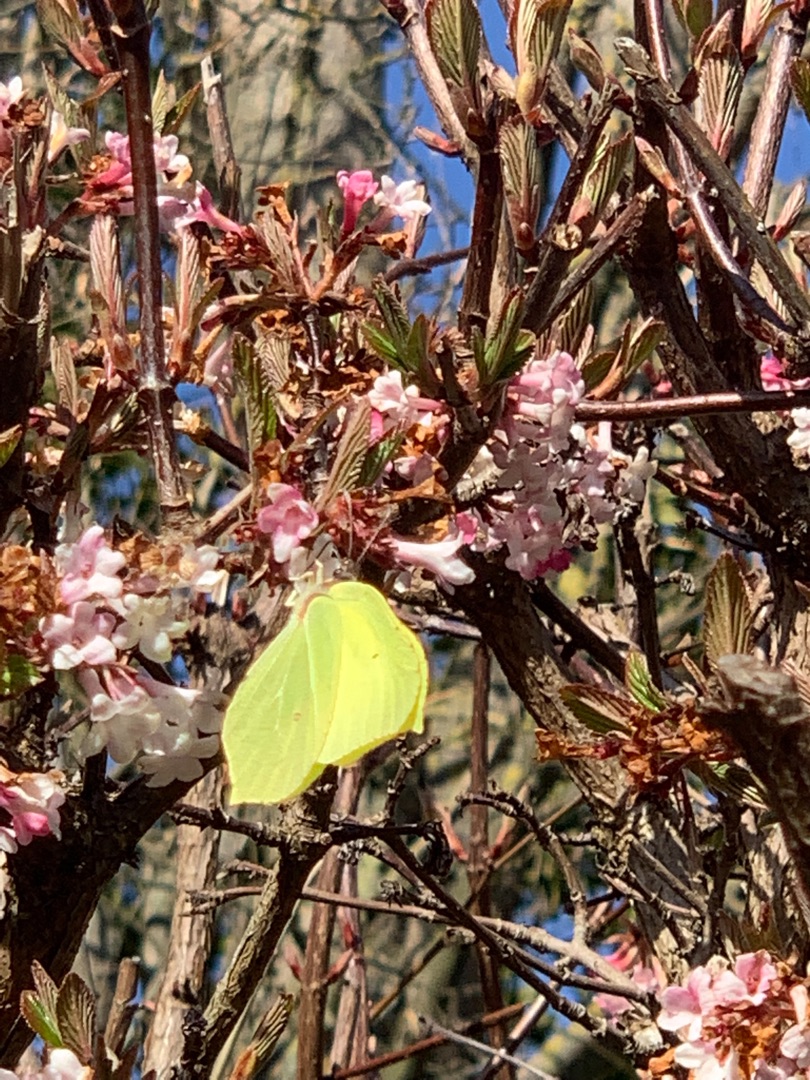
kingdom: Animalia
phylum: Arthropoda
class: Insecta
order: Lepidoptera
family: Pieridae
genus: Gonepteryx
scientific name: Gonepteryx rhamni
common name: Citronsommerfugl
